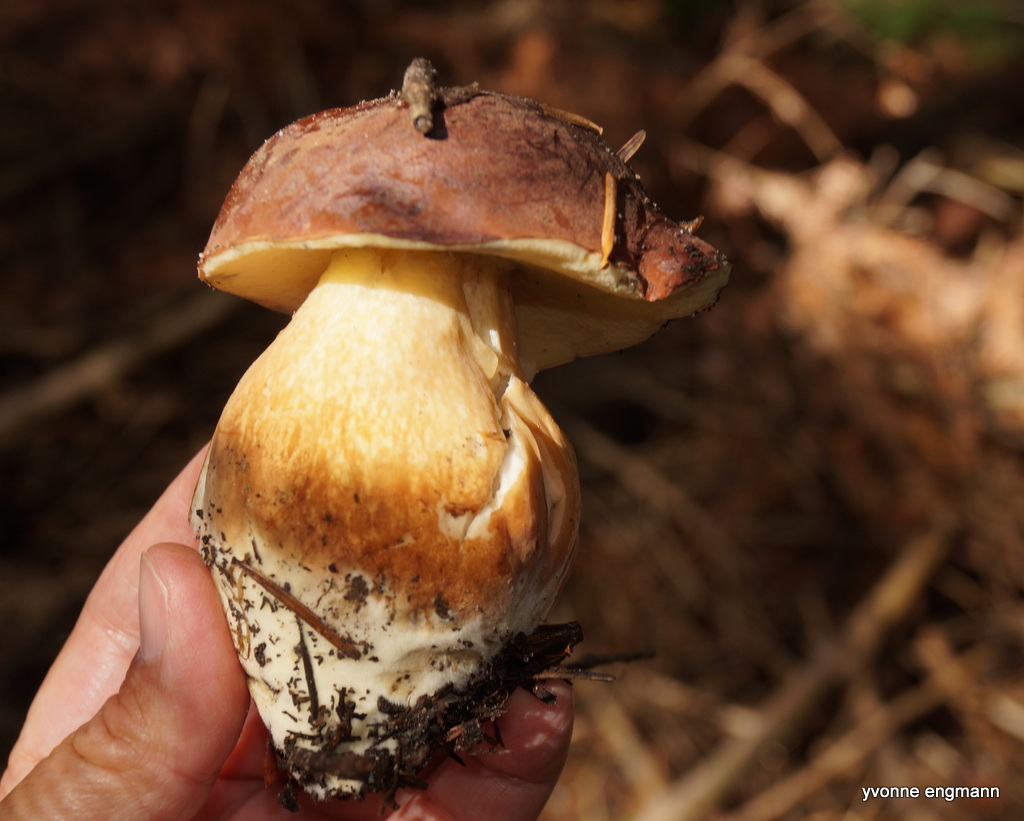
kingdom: Fungi
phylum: Basidiomycota
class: Agaricomycetes
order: Boletales
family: Boletaceae
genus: Imleria
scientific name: Imleria badia
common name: brunstokket rørhat
